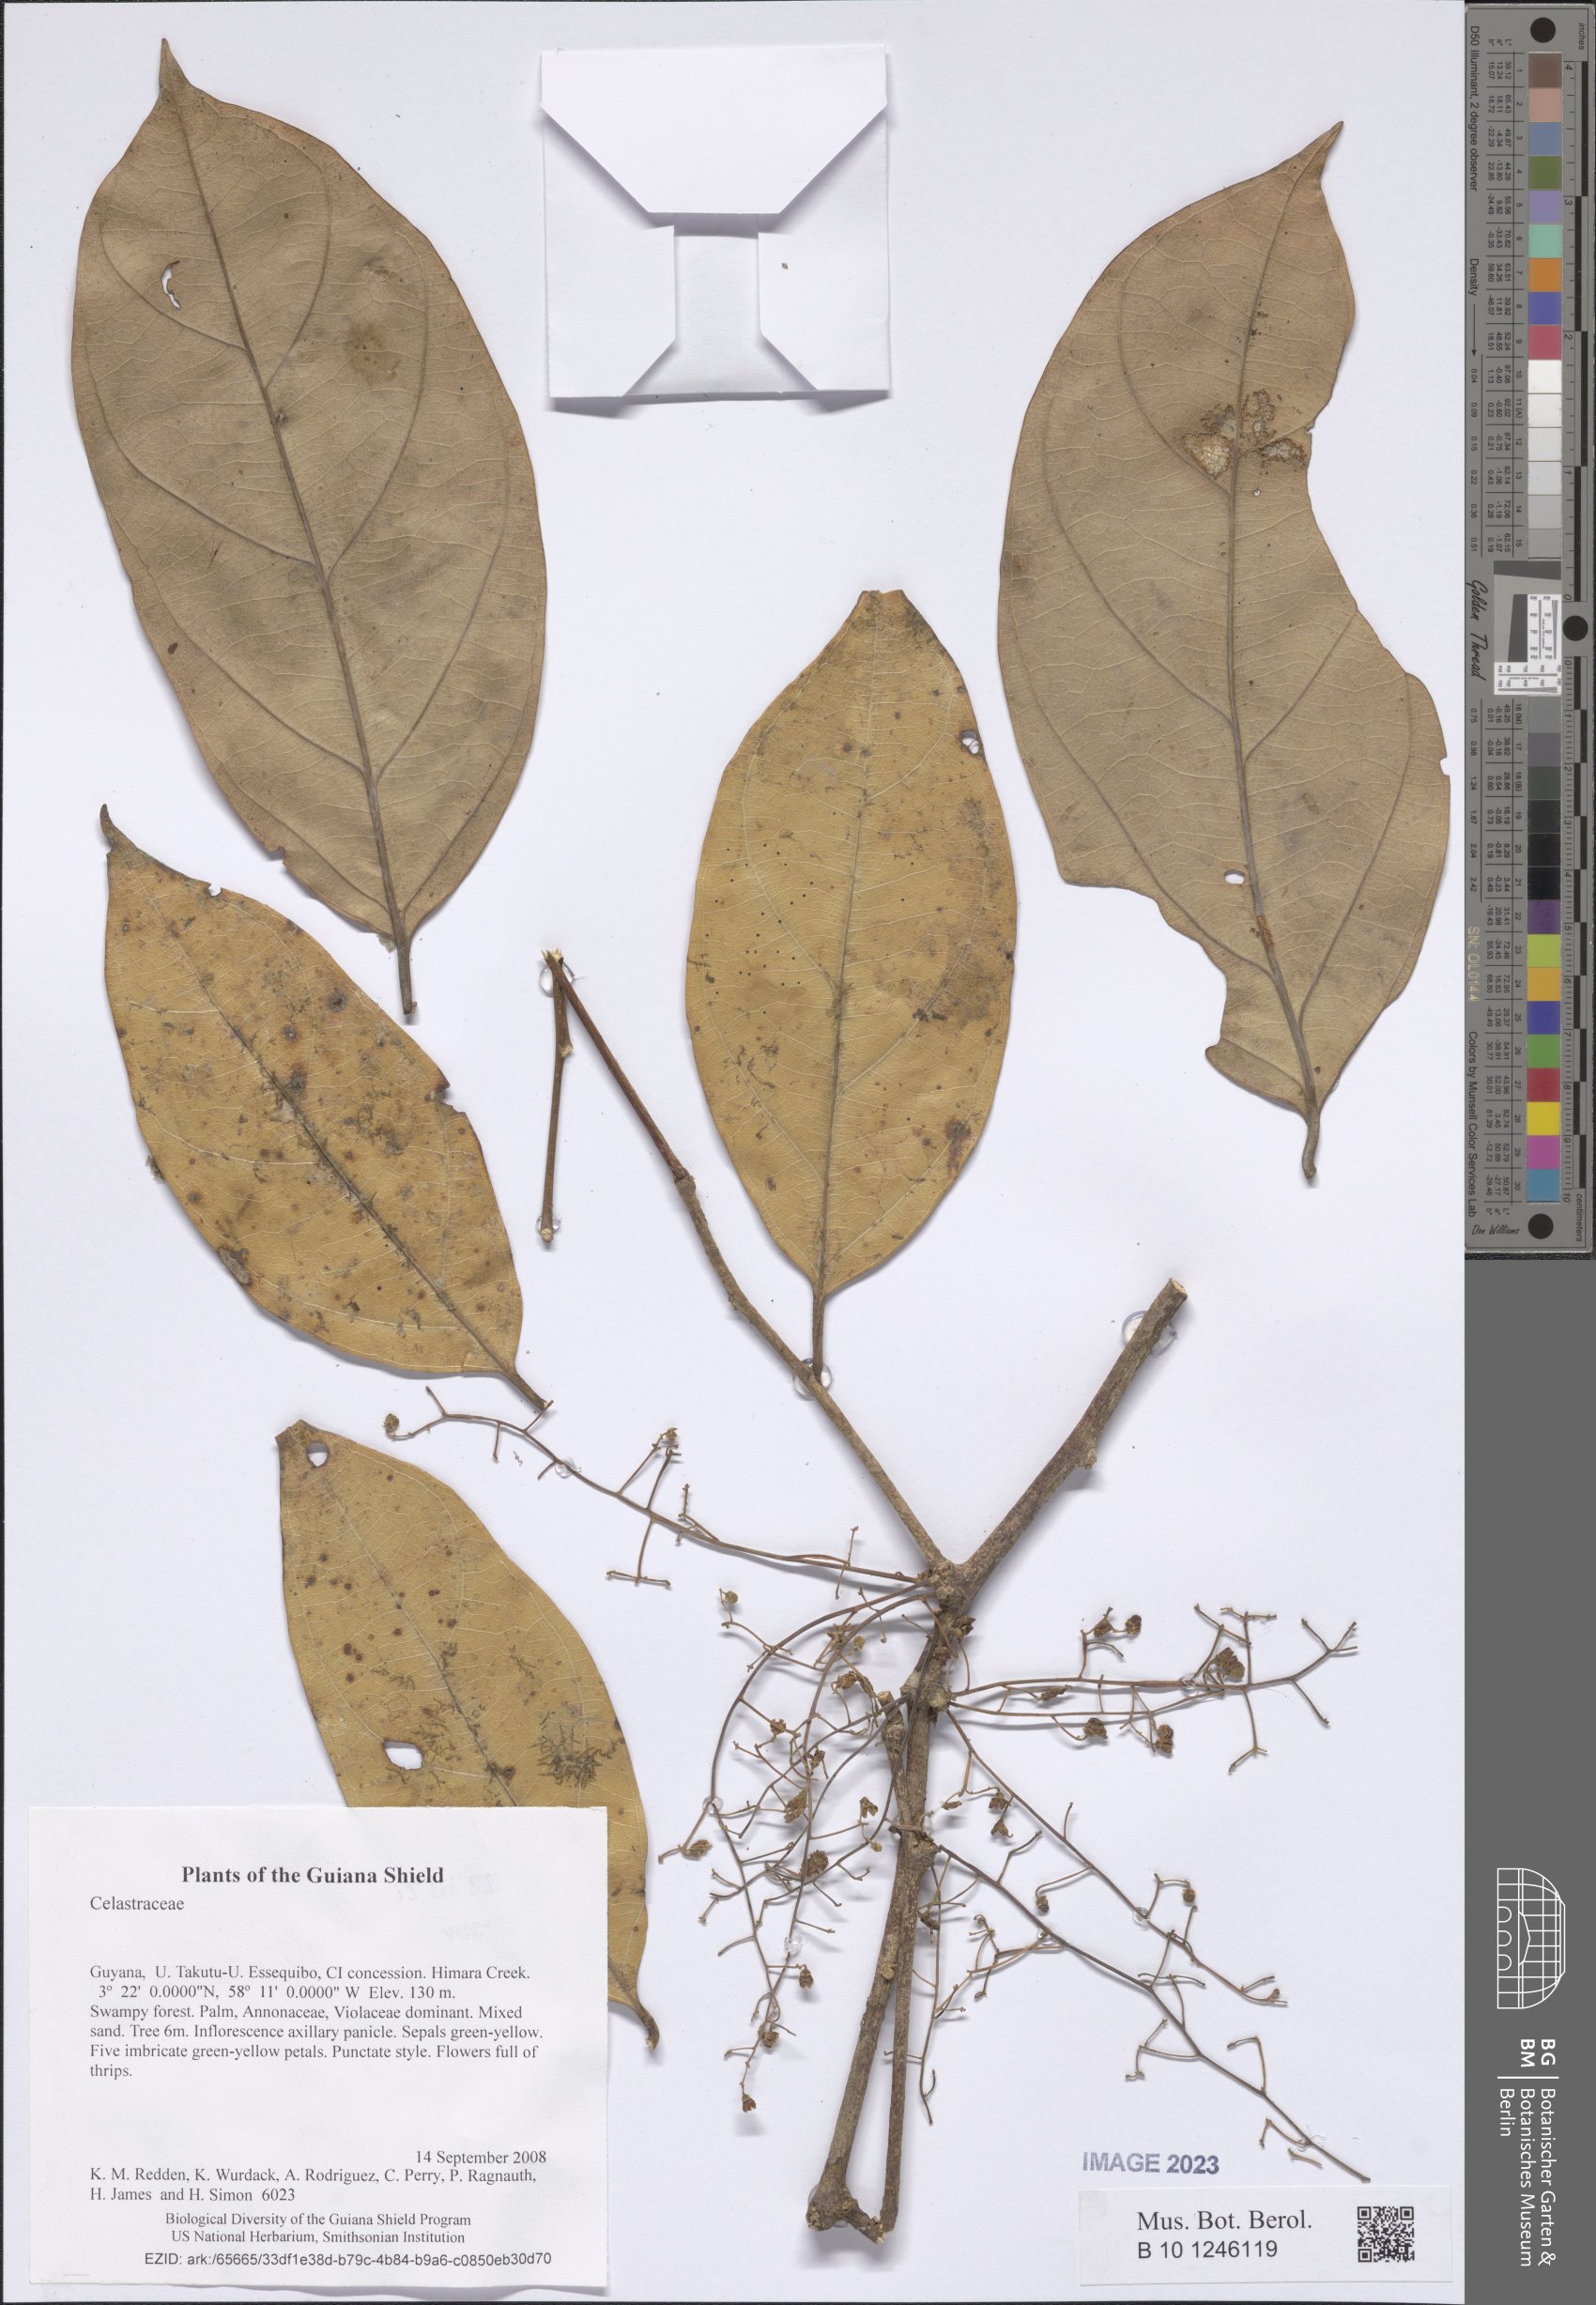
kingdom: Plantae
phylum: Tracheophyta
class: Magnoliopsida
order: Celastrales
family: Celastraceae
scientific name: Celastraceae
